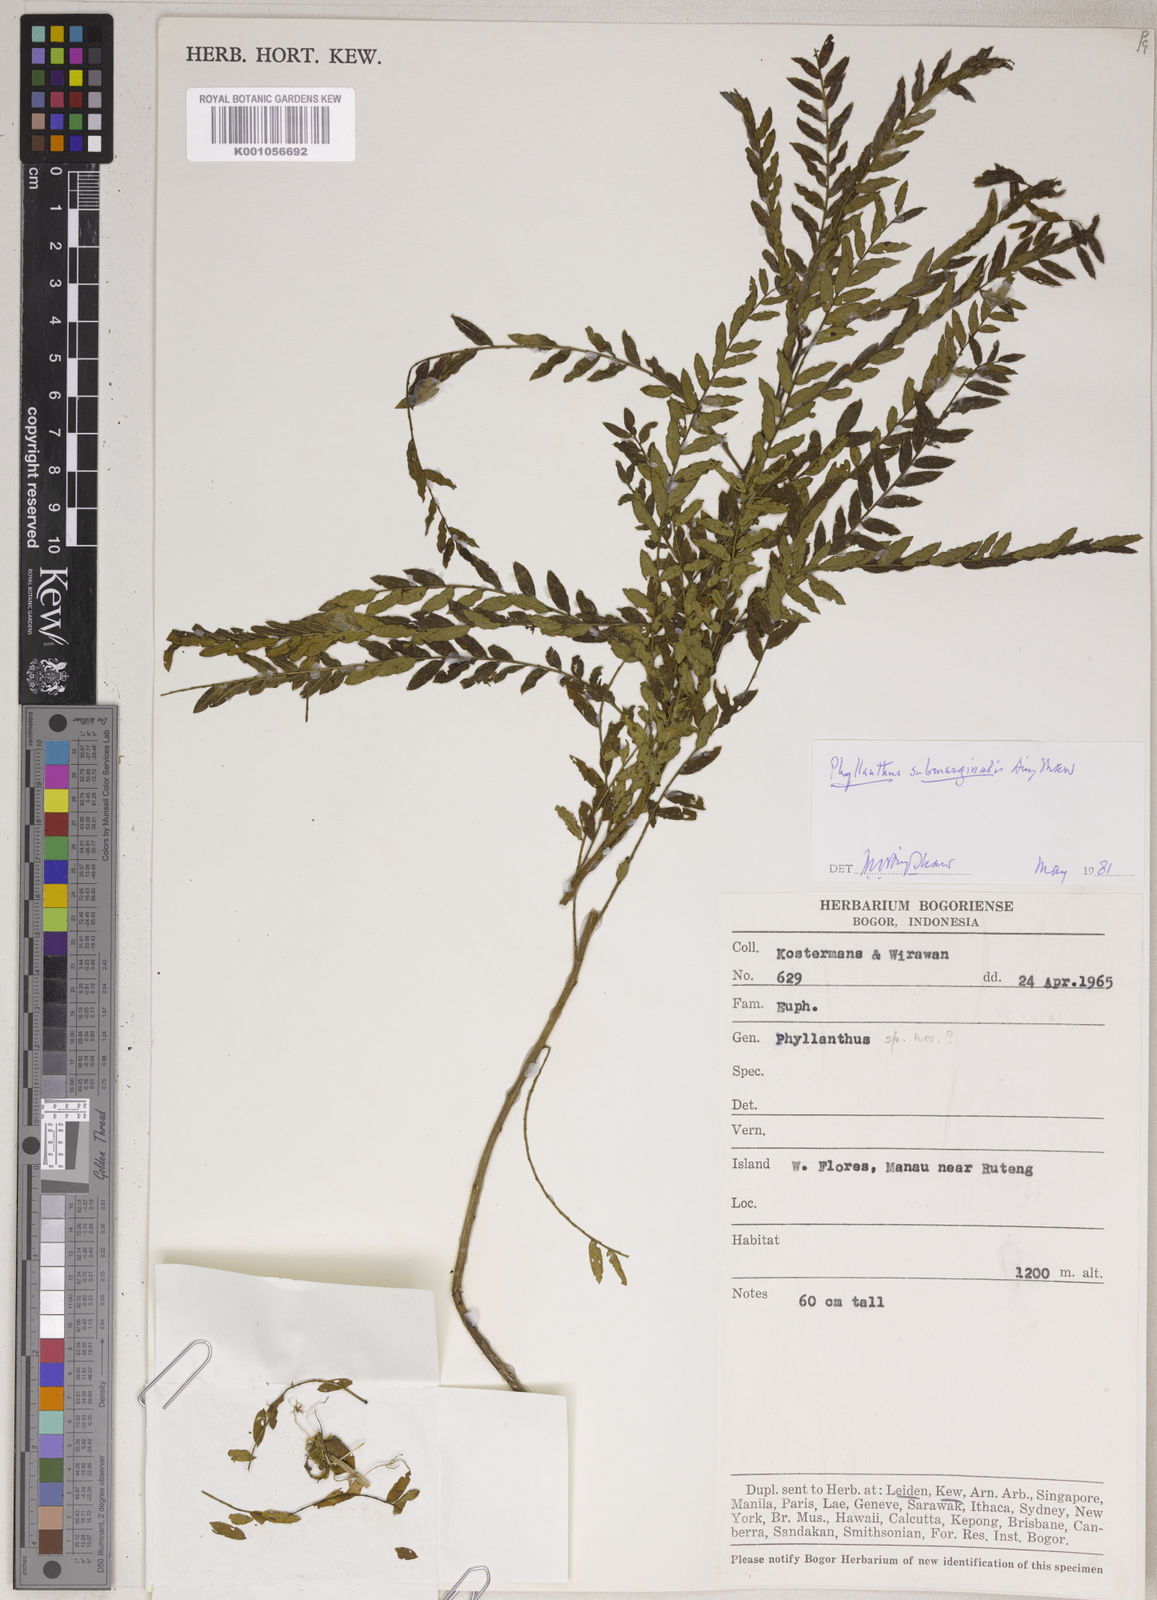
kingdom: Plantae
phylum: Tracheophyta
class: Magnoliopsida
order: Malpighiales
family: Phyllanthaceae
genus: Phyllanthus
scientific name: Phyllanthus submarginalis
